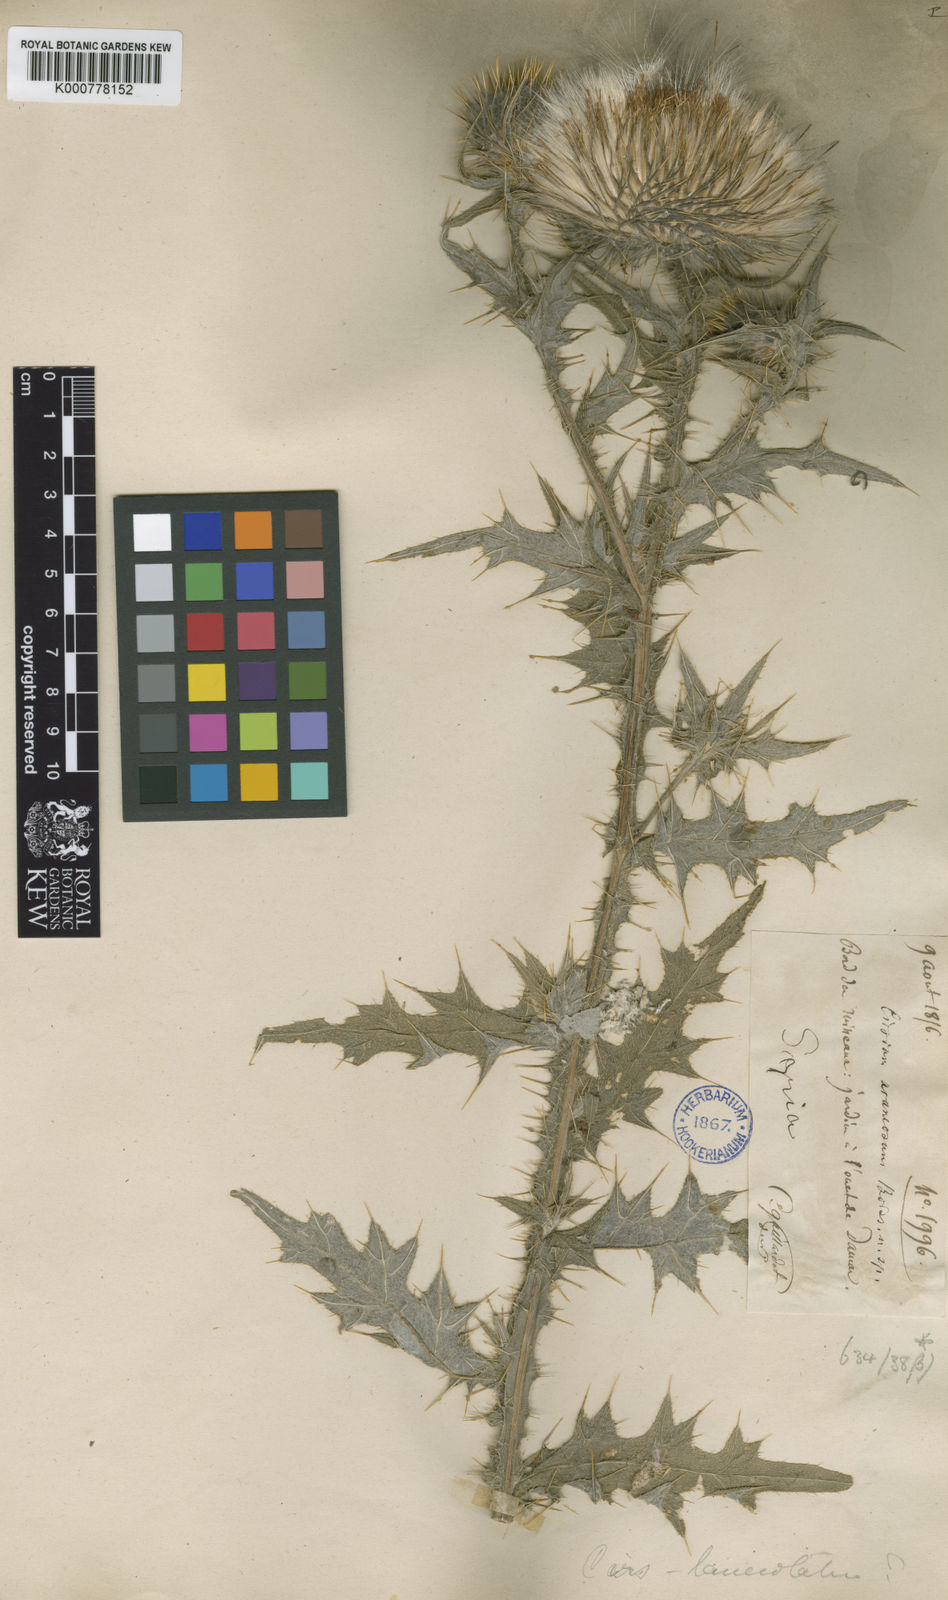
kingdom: Plantae
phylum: Tracheophyta
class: Magnoliopsida
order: Asterales
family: Asteraceae
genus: Cirsium
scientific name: Cirsium dissectum
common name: Meadow thistle
